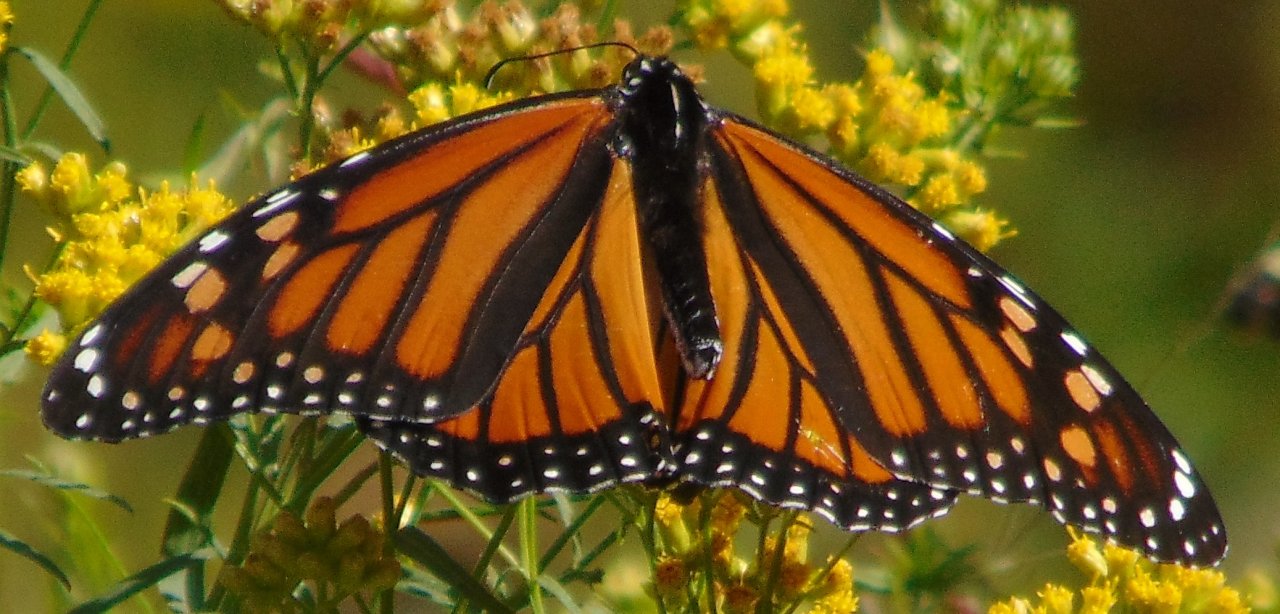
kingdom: Animalia
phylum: Arthropoda
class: Insecta
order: Lepidoptera
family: Nymphalidae
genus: Danaus
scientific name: Danaus plexippus
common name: Monarch
